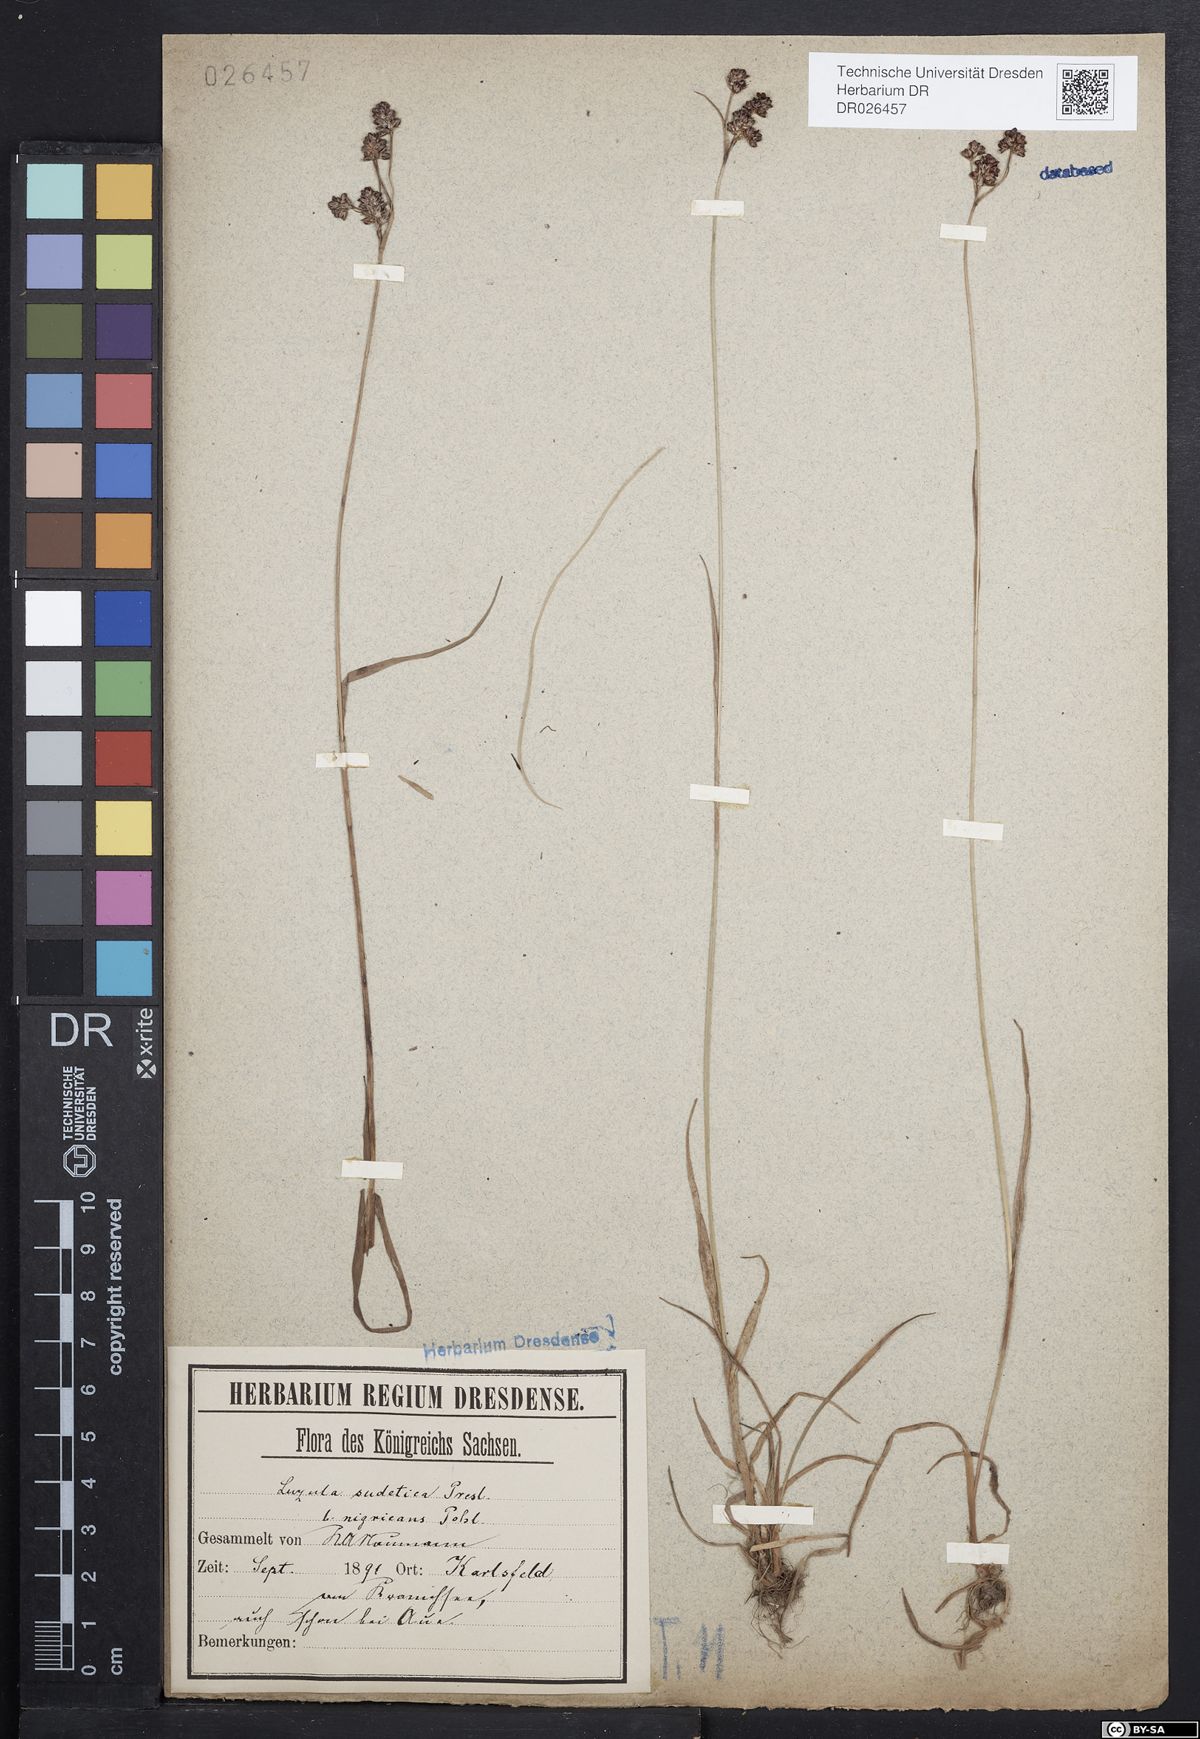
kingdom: Plantae
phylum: Tracheophyta
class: Liliopsida
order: Poales
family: Juncaceae
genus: Luzula
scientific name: Luzula sudetica
